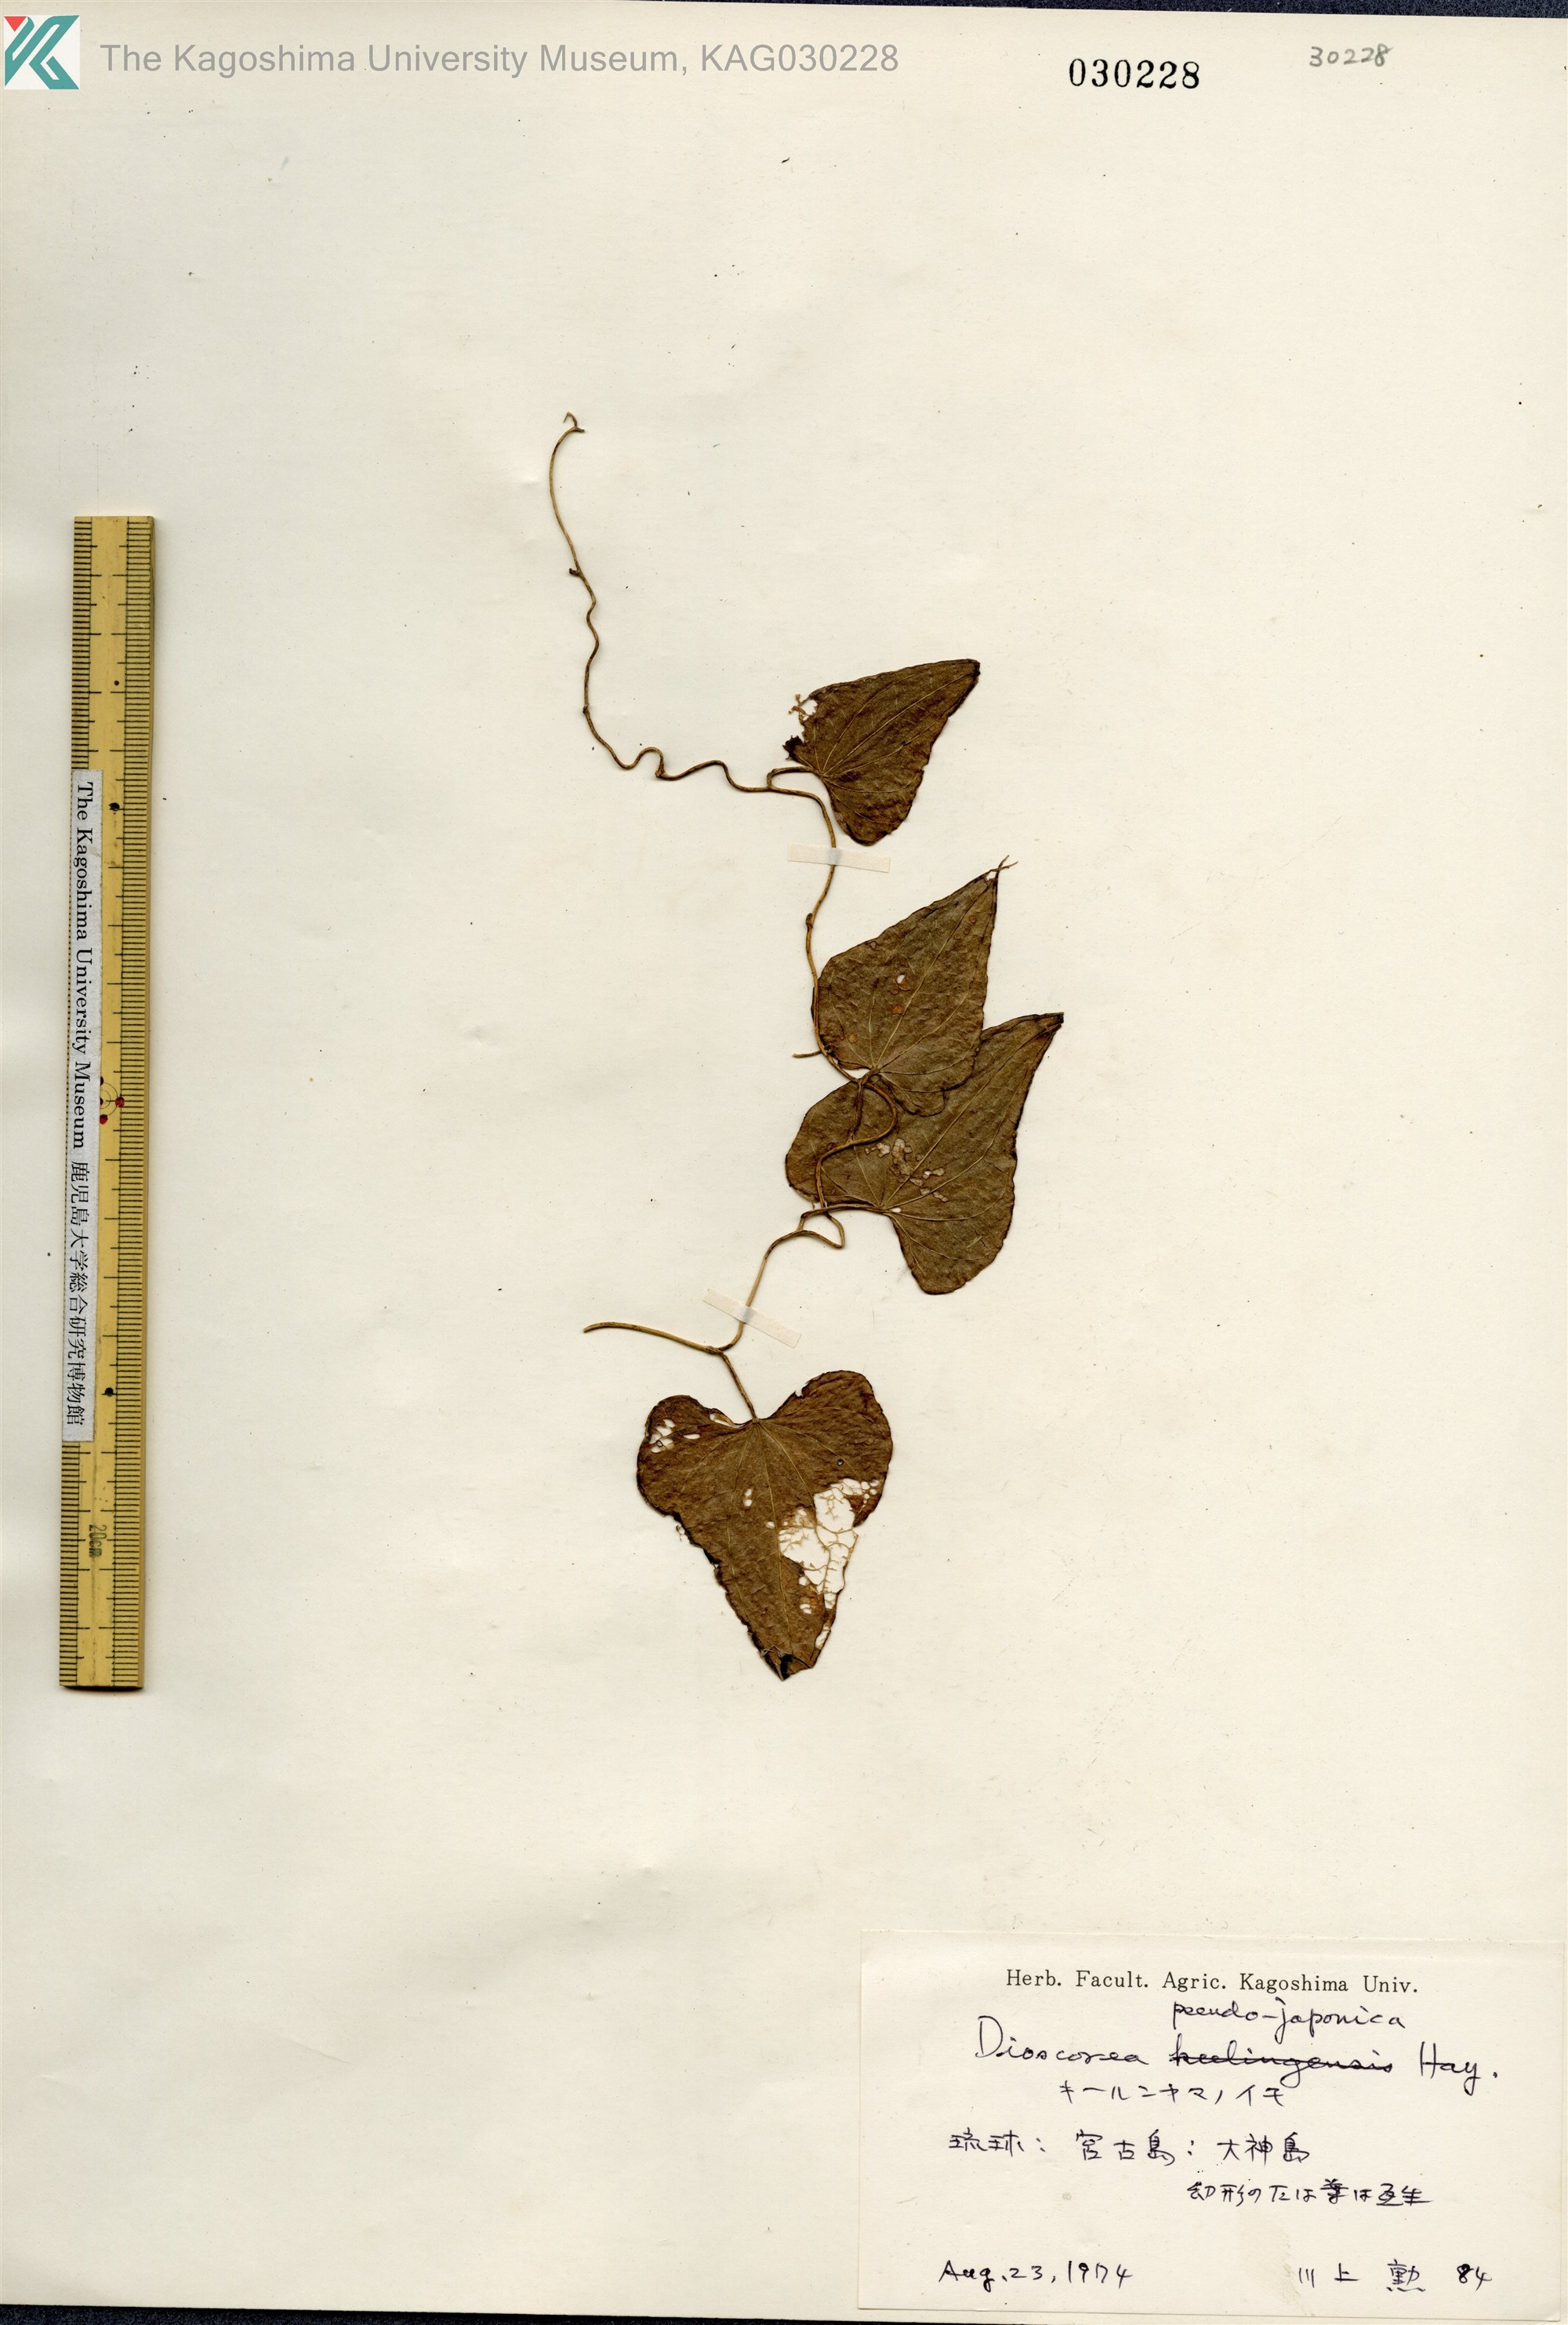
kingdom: Plantae
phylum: Tracheophyta
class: Liliopsida
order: Dioscoreales
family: Dioscoreaceae
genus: Dioscorea
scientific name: Dioscorea japonica
